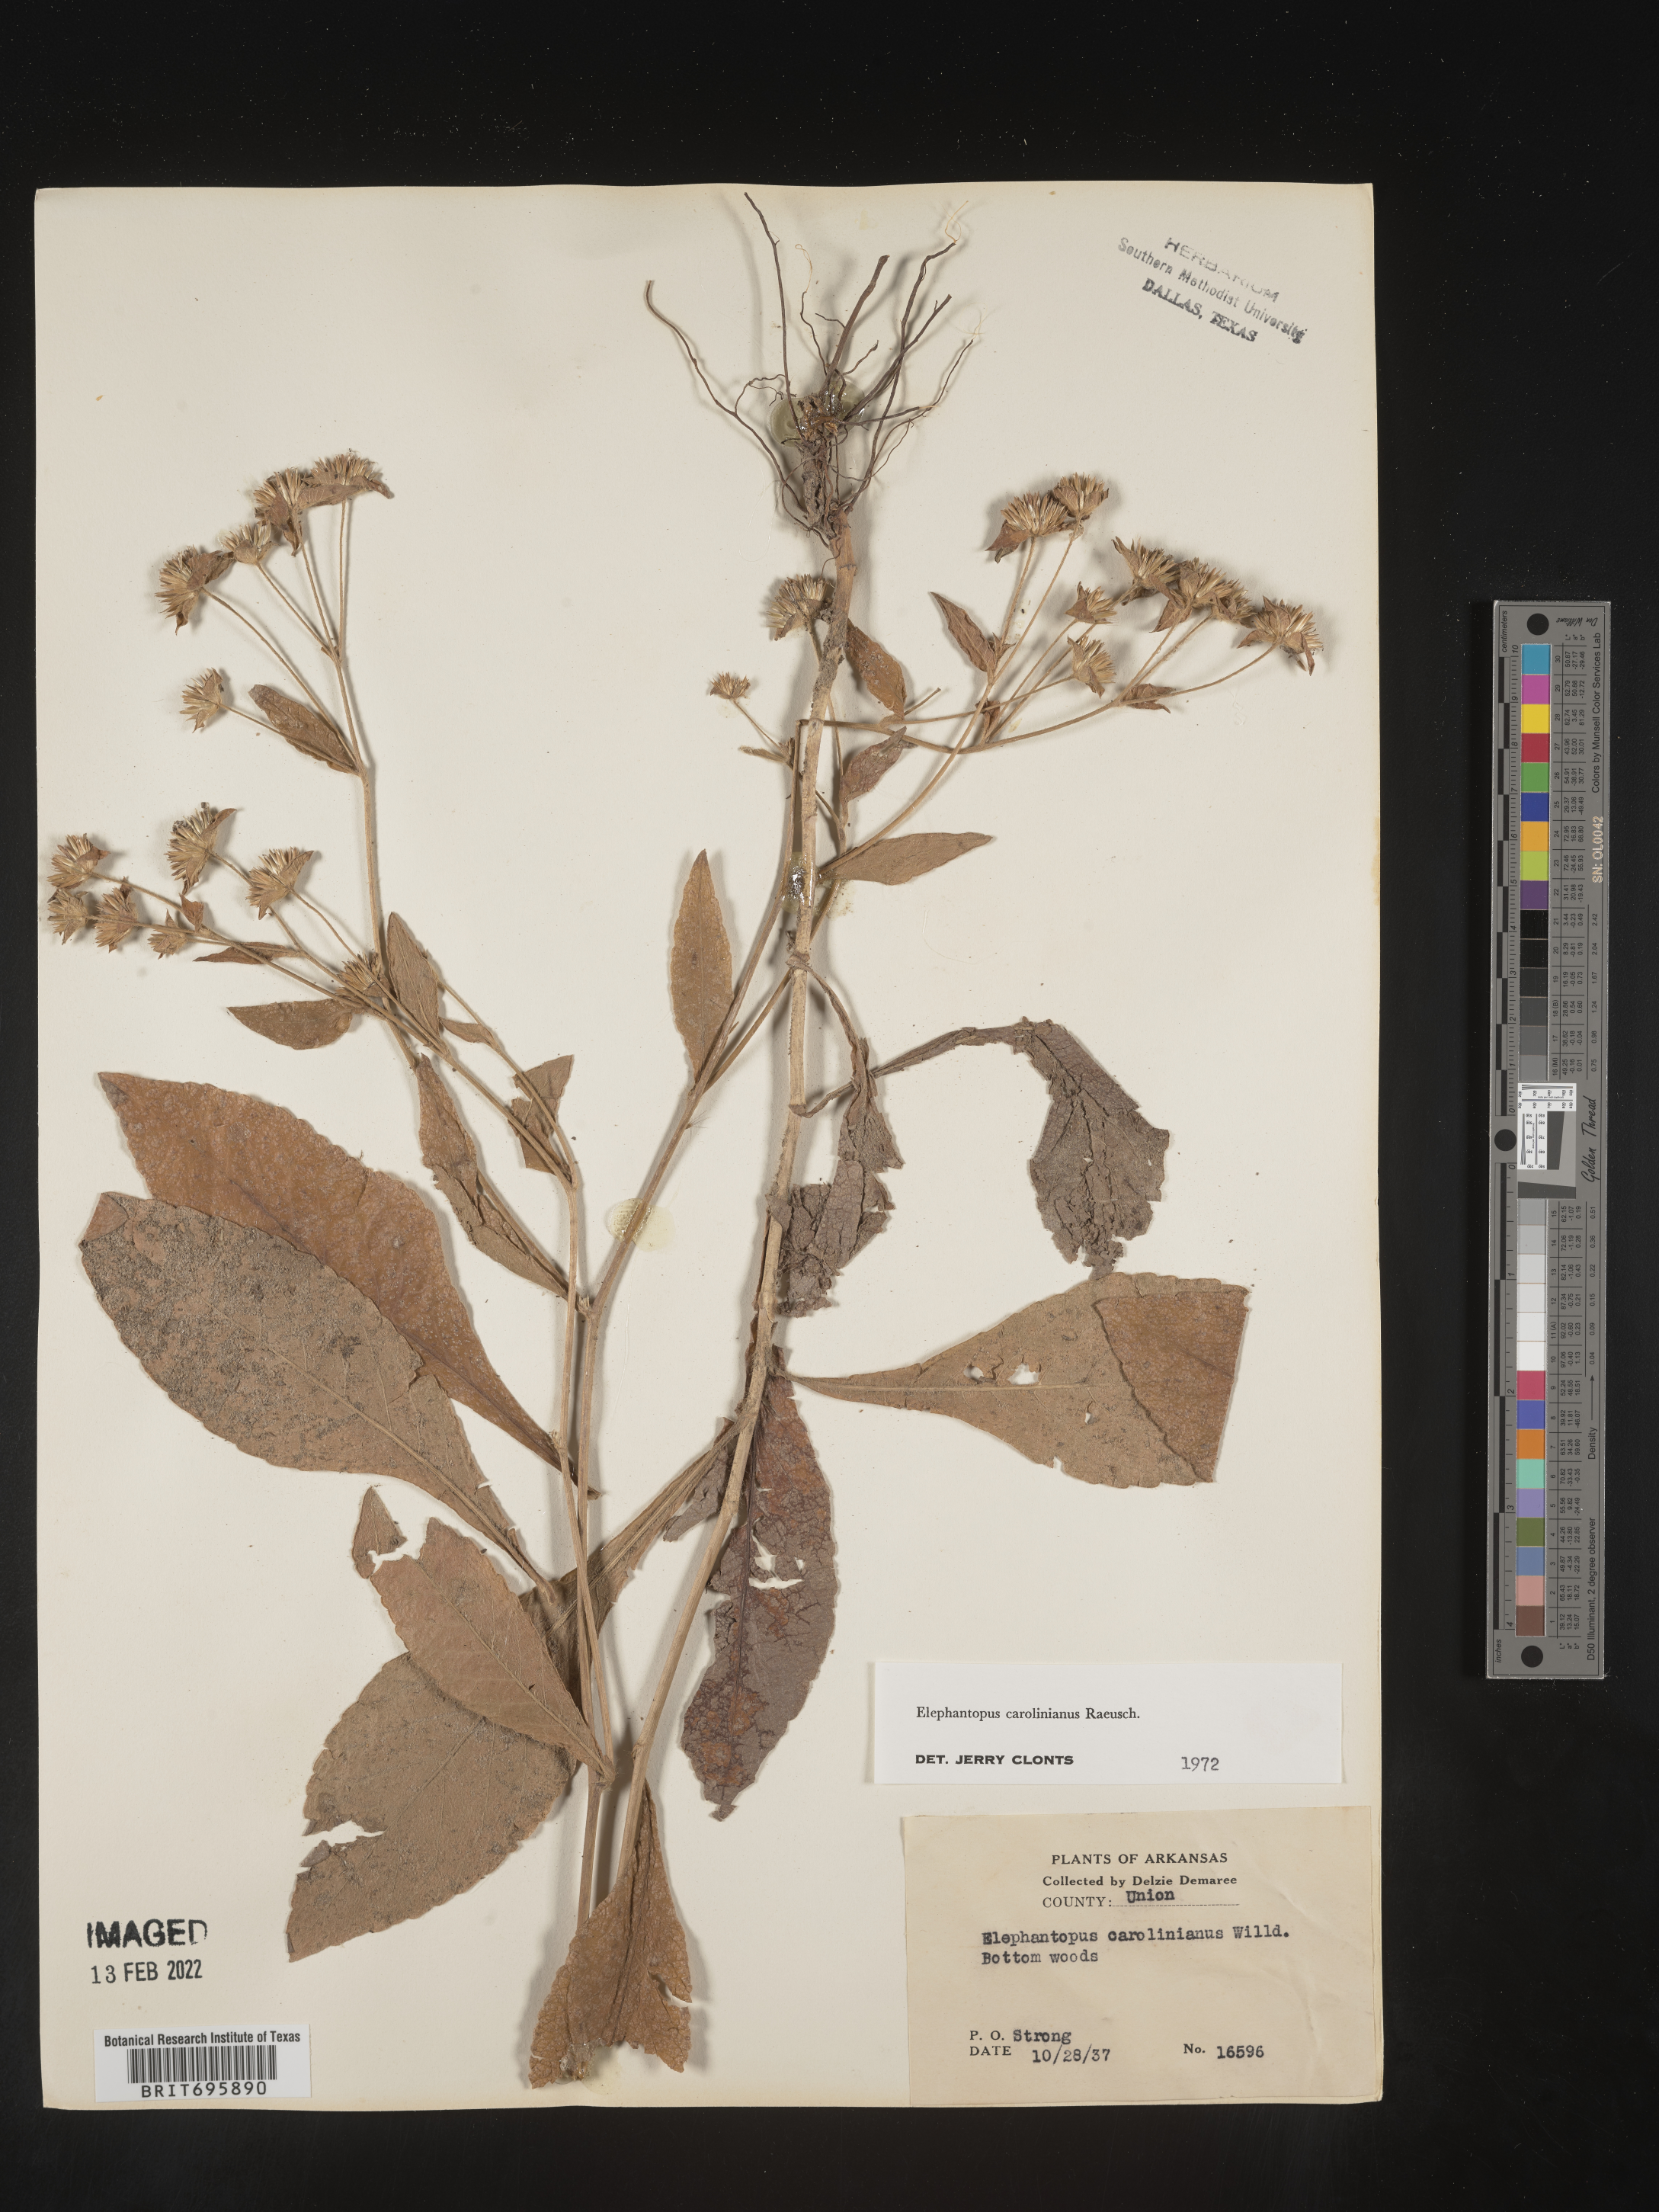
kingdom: Plantae
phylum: Tracheophyta
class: Magnoliopsida
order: Asterales
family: Asteraceae
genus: Elephantopus
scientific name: Elephantopus carolinianus
